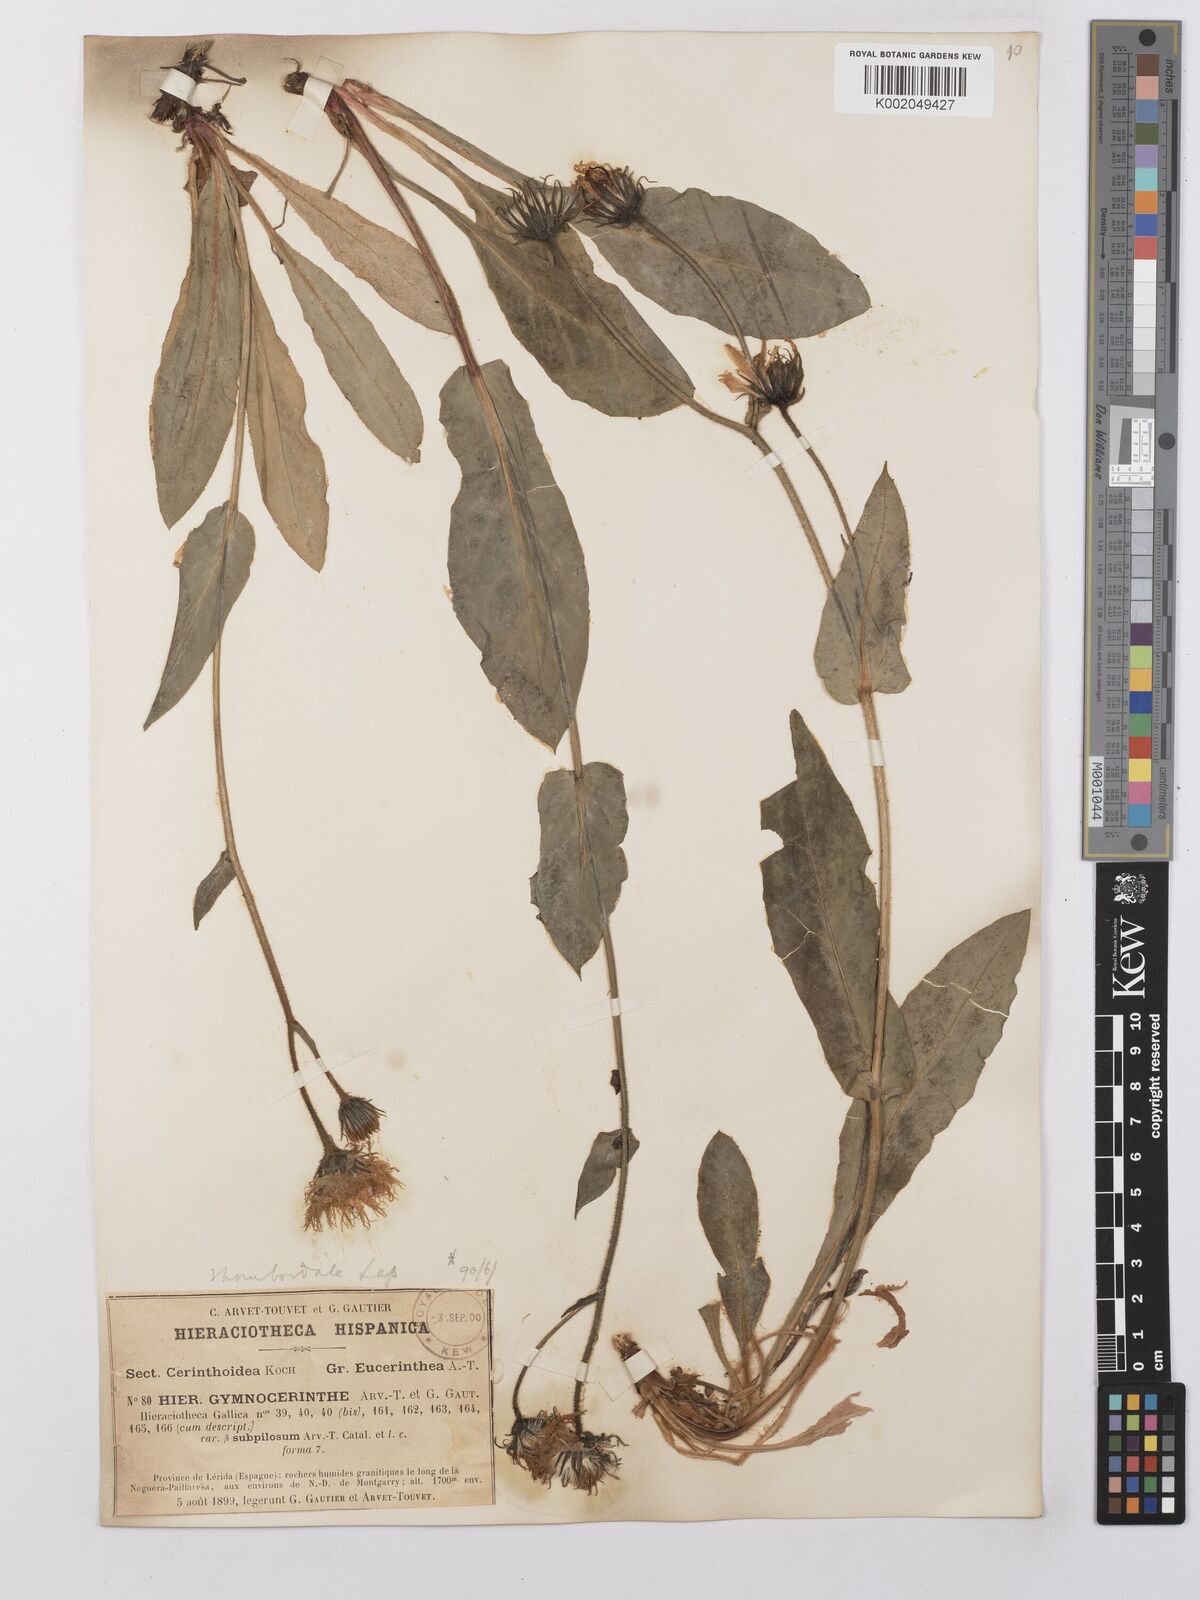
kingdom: Plantae
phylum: Tracheophyta
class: Magnoliopsida
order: Asterales
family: Asteraceae
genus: Hieracium
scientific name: Hieracium cerinthoides
